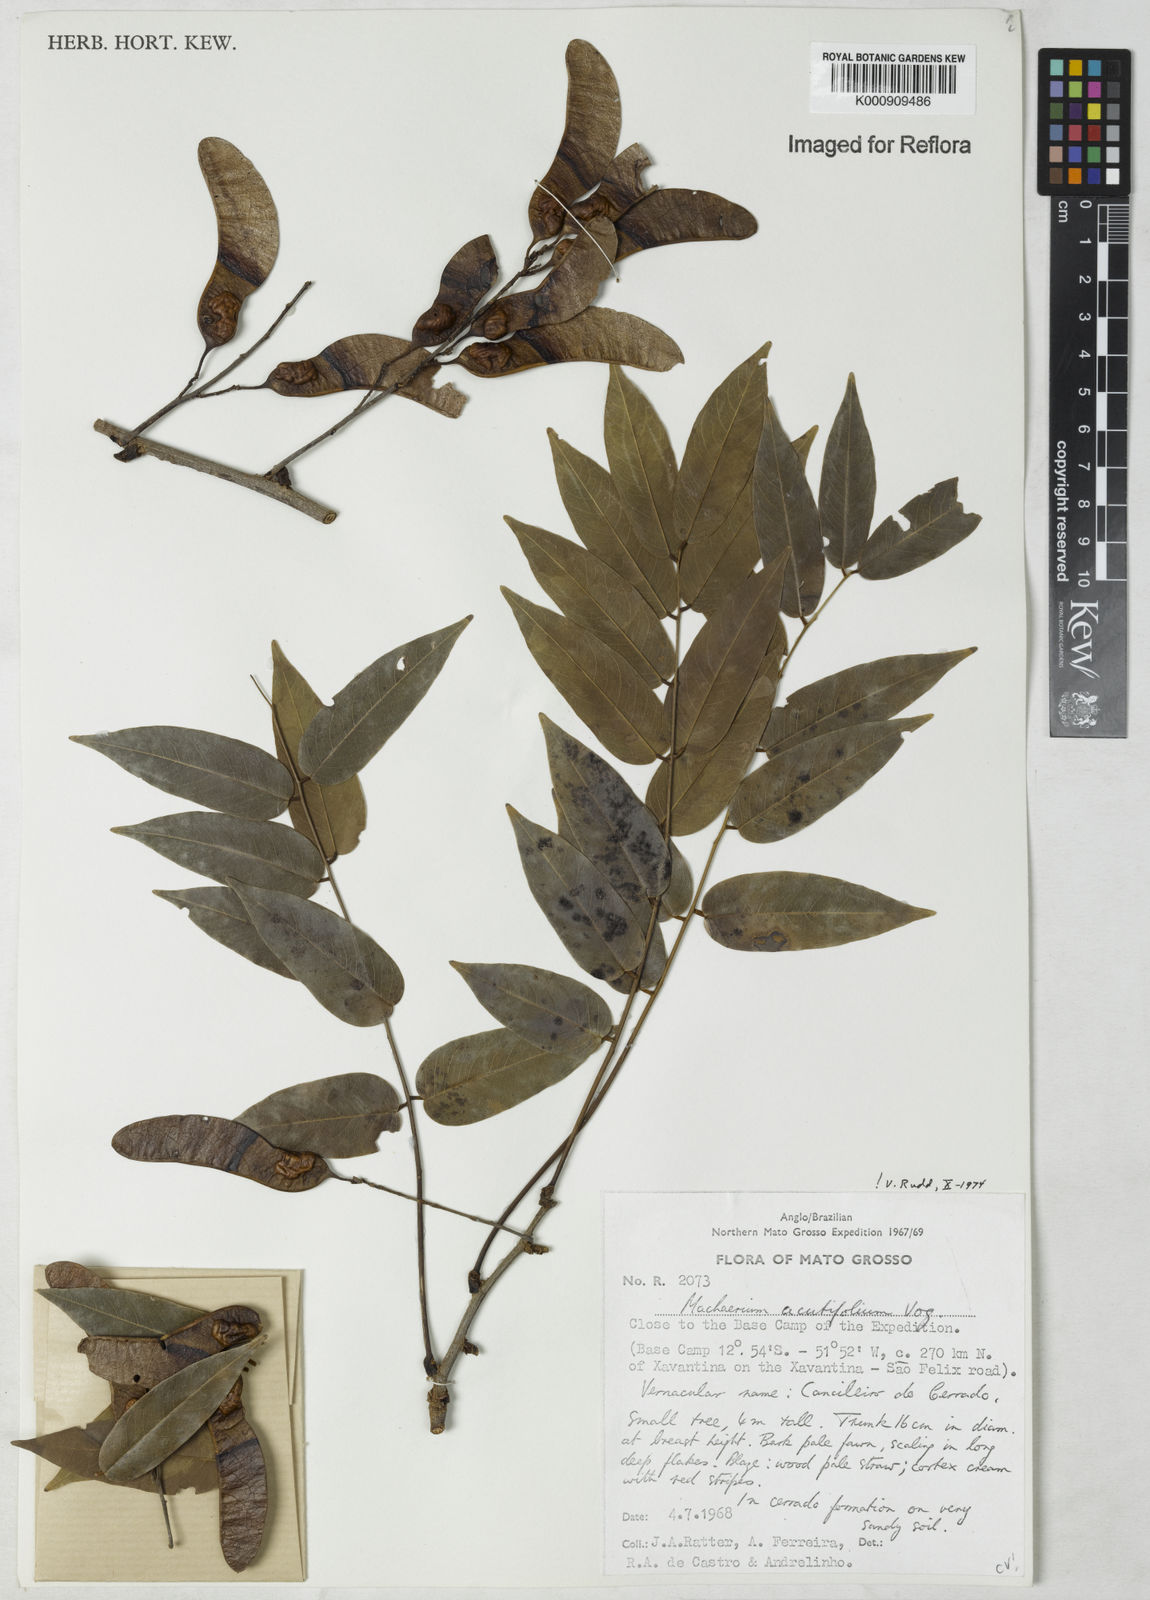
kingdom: Plantae
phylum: Tracheophyta
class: Magnoliopsida
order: Fabales
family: Fabaceae
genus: Machaerium
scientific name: Machaerium acutifolium
